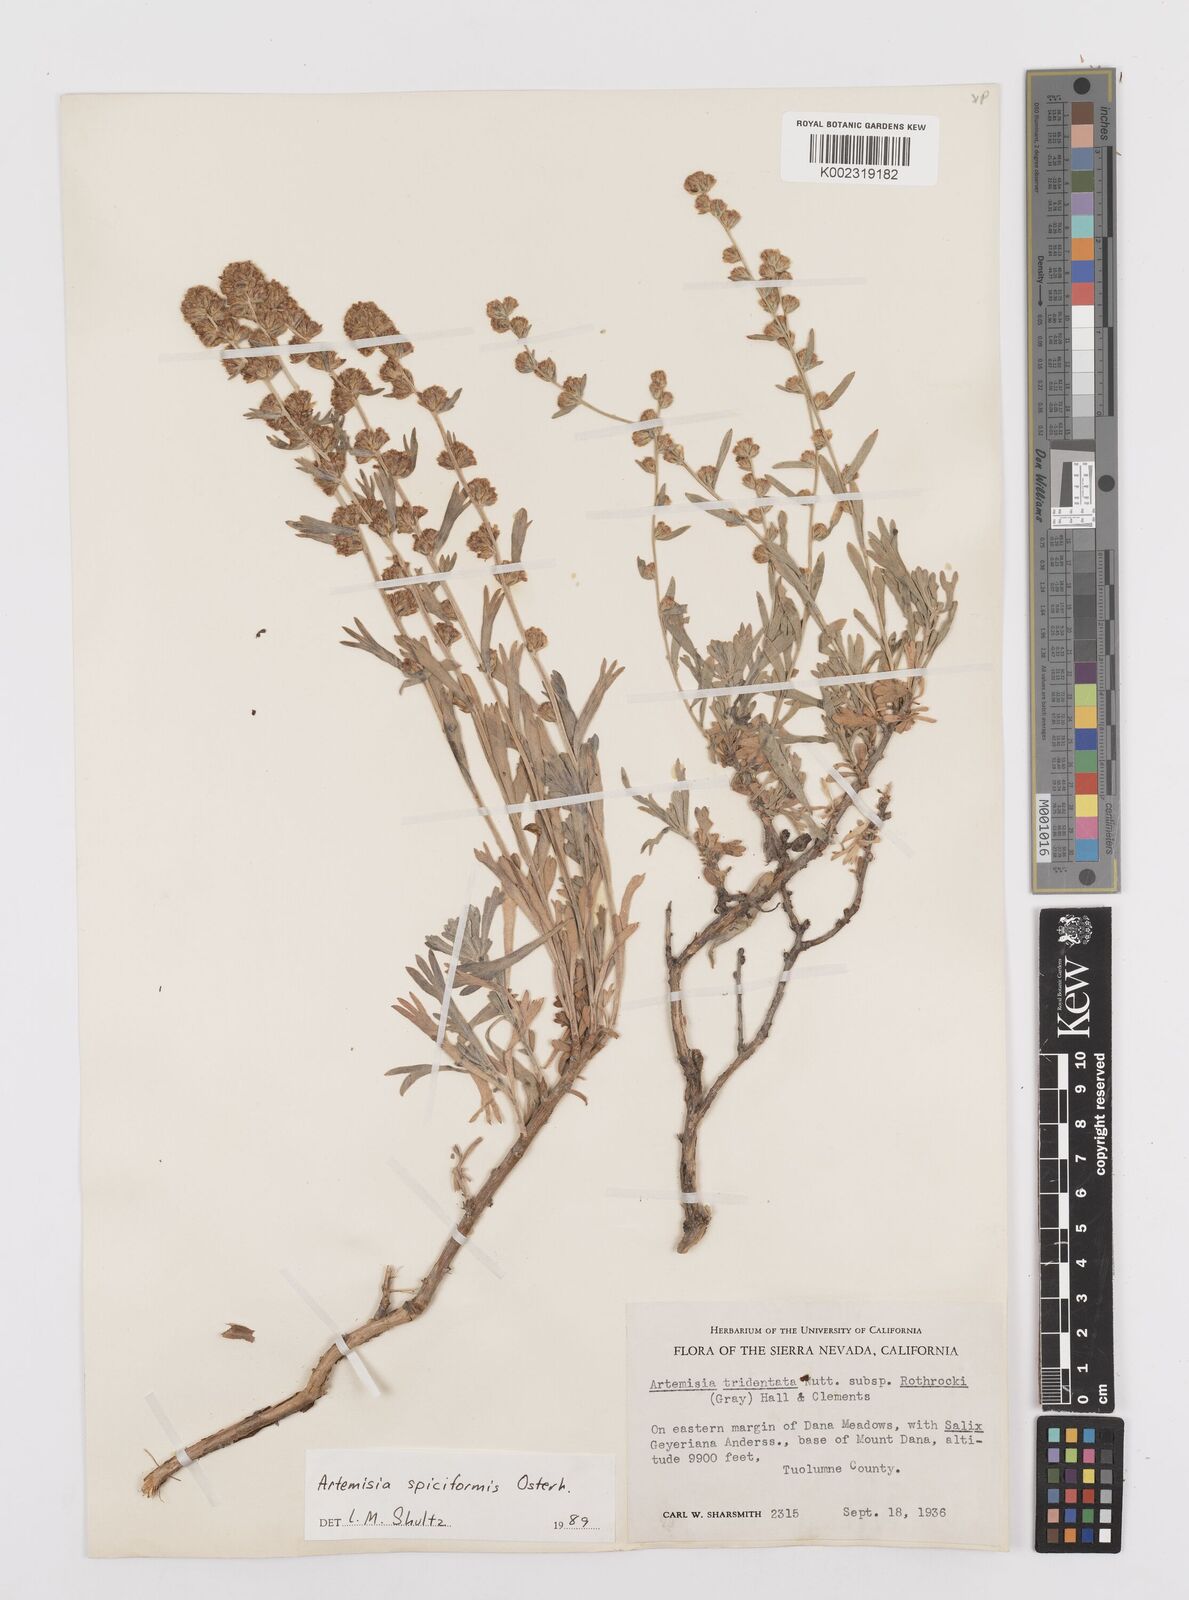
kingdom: Plantae
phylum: Tracheophyta
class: Magnoliopsida
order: Asterales
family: Asteraceae
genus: Artemisia
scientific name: Artemisia spiciformis
